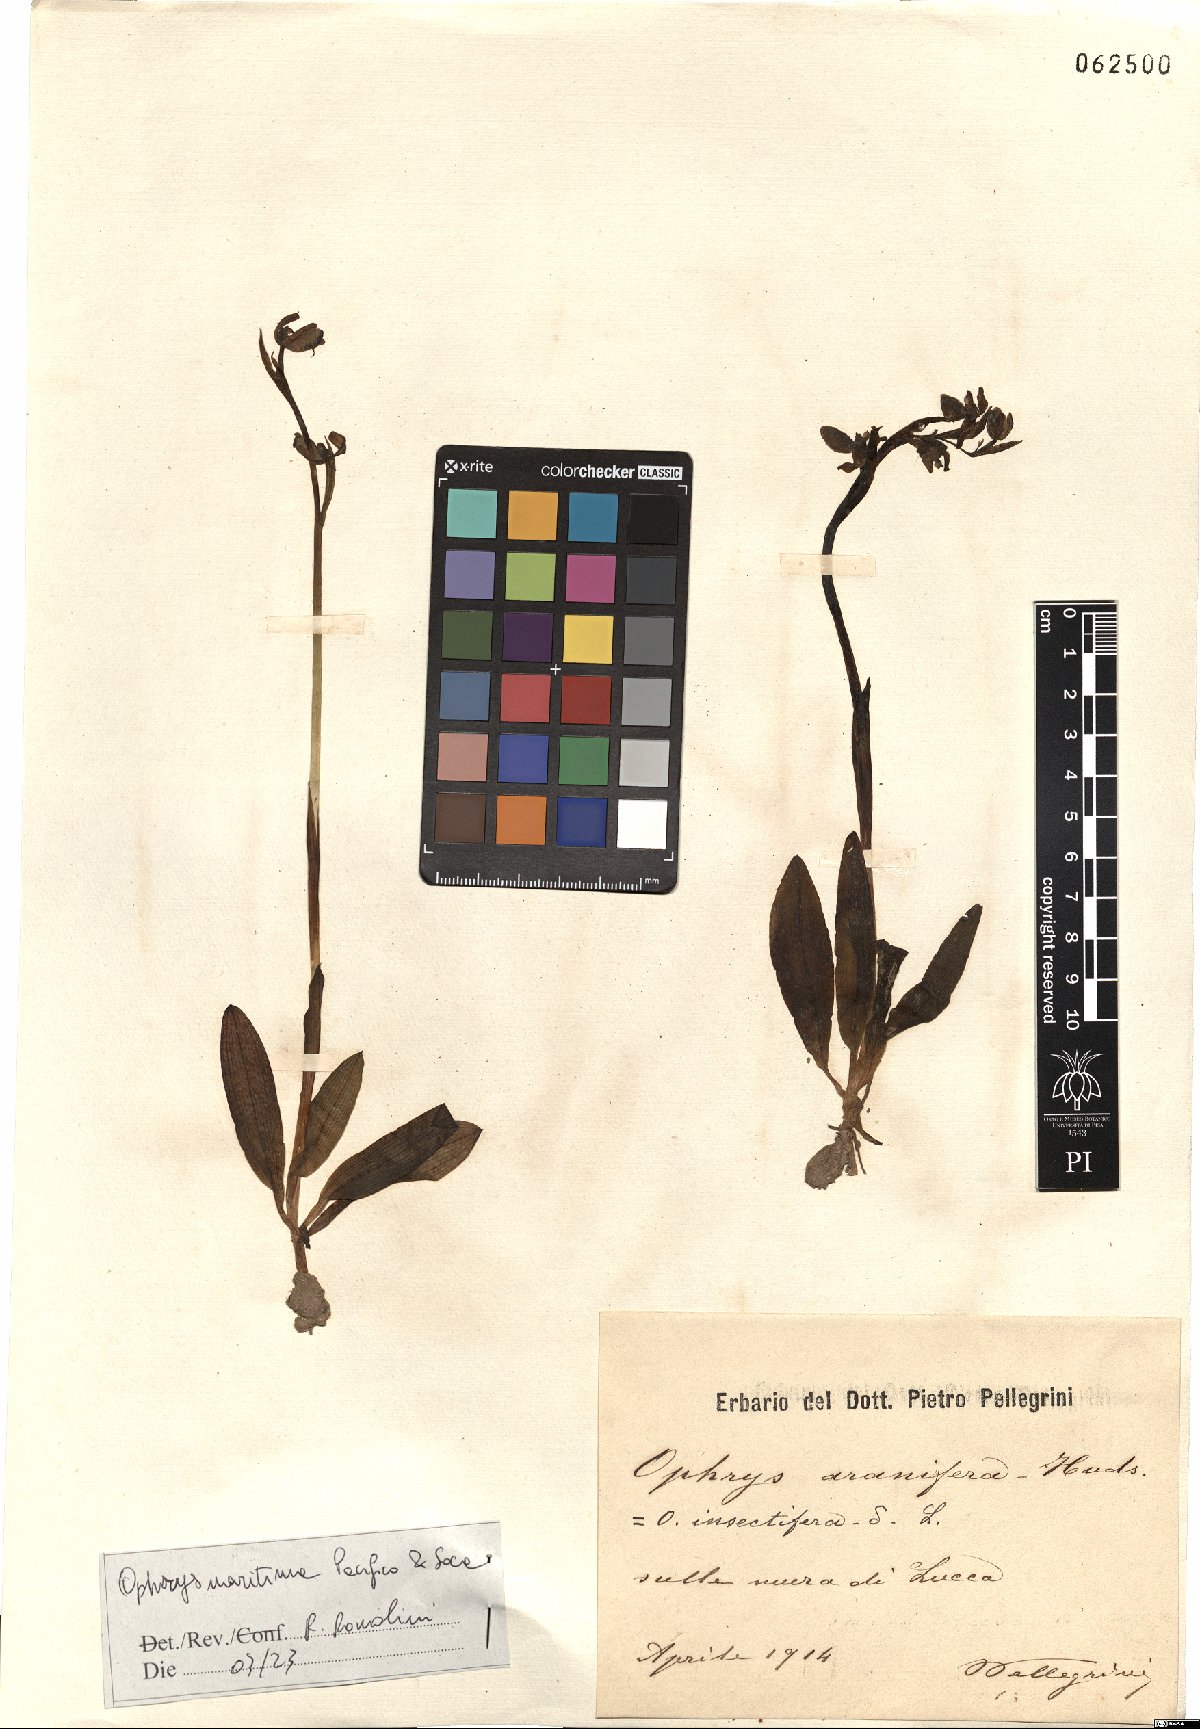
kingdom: Plantae
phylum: Tracheophyta
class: Liliopsida
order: Asparagales
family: Orchidaceae
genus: Ophrys
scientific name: Ophrys sphegodes
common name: Early spider-orchid
